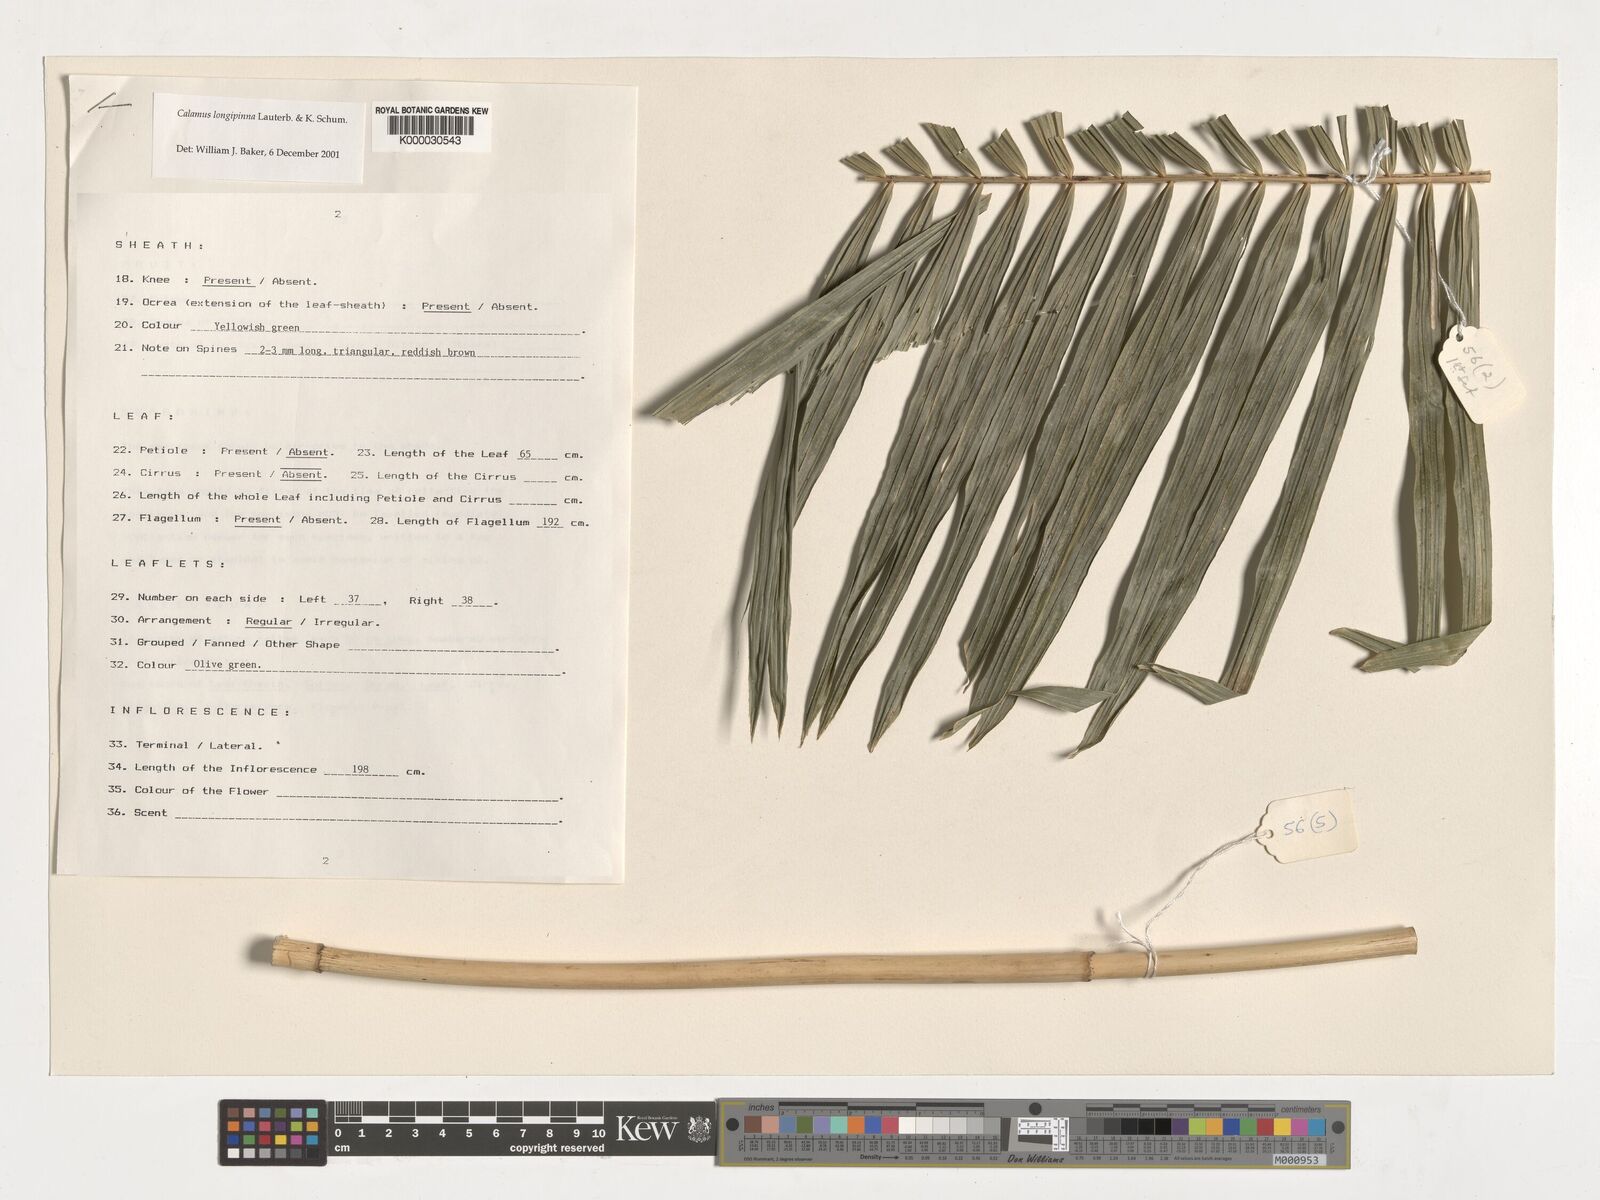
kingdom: Plantae
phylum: Tracheophyta
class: Liliopsida
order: Arecales
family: Arecaceae
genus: Calamus
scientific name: Calamus longipinna
